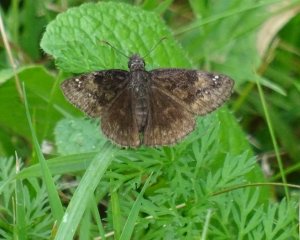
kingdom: Animalia
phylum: Arthropoda
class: Insecta
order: Lepidoptera
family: Hesperiidae
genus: Gesta
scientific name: Gesta
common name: Wild Indigo Duskywing
